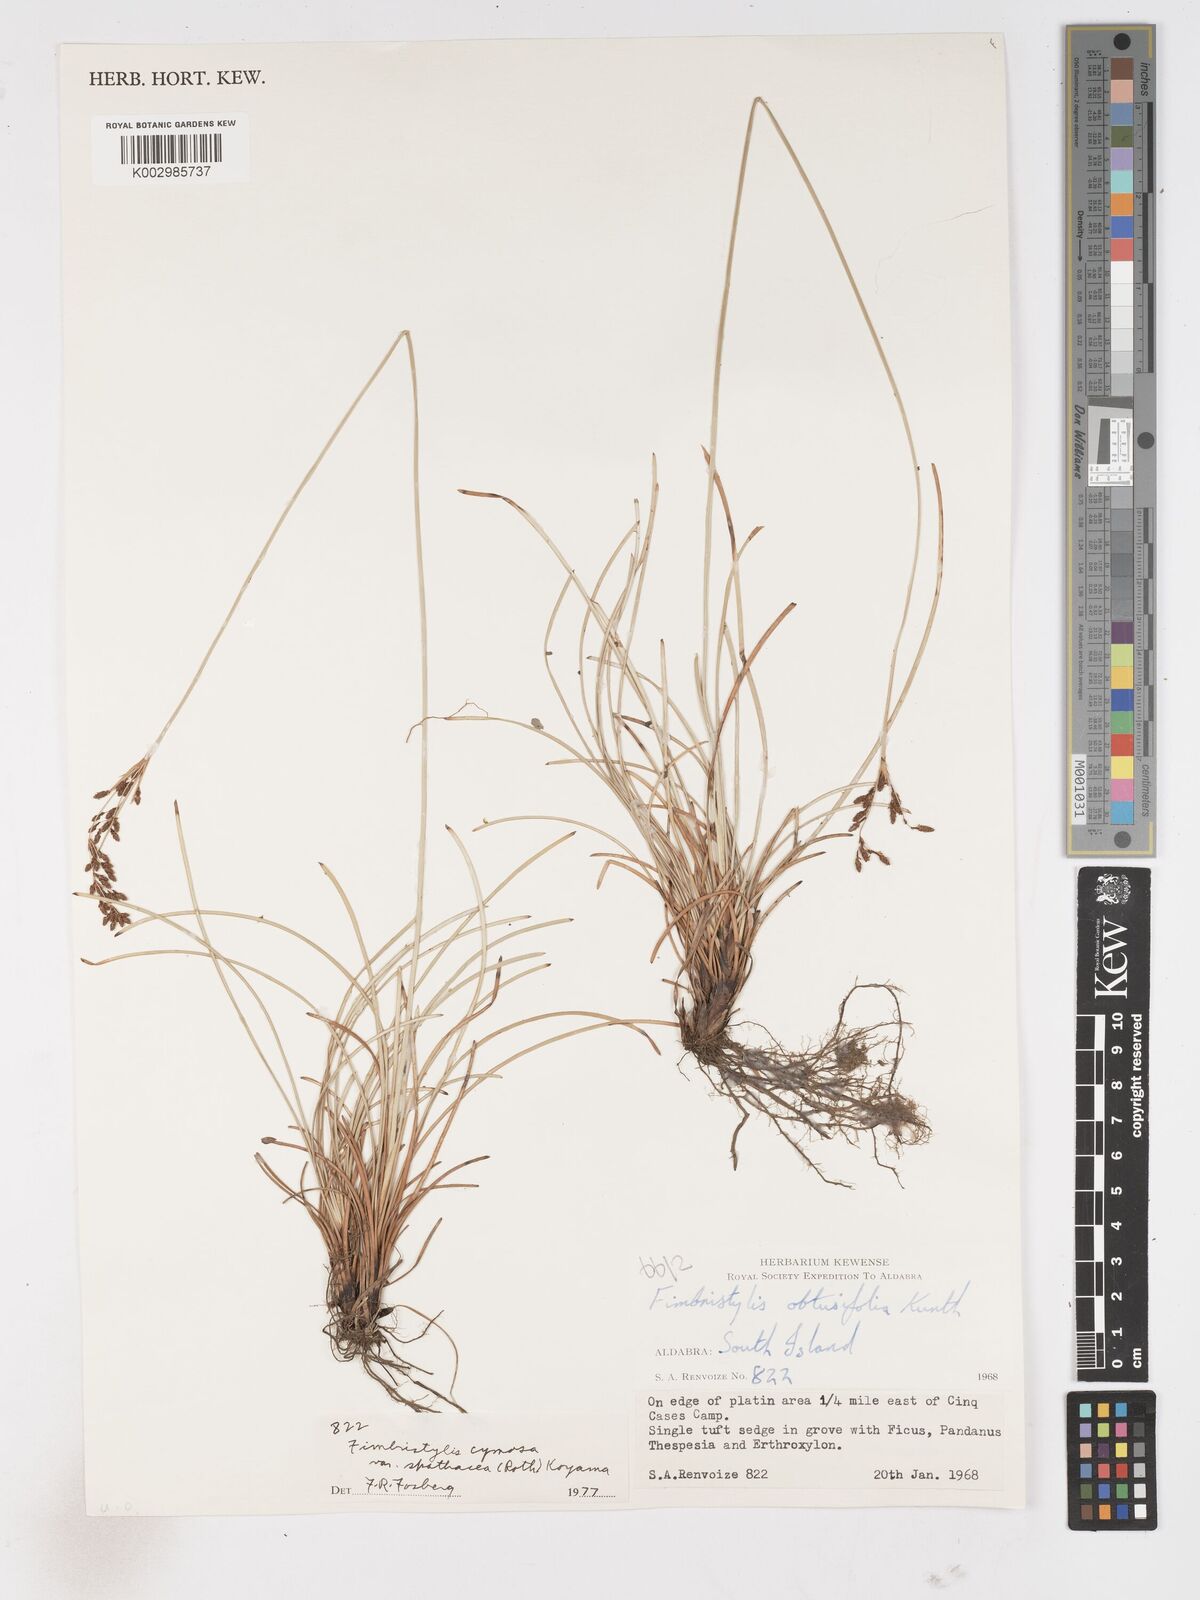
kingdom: Plantae
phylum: Tracheophyta
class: Liliopsida
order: Poales
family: Cyperaceae
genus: Fimbristylis
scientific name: Fimbristylis cymosa
